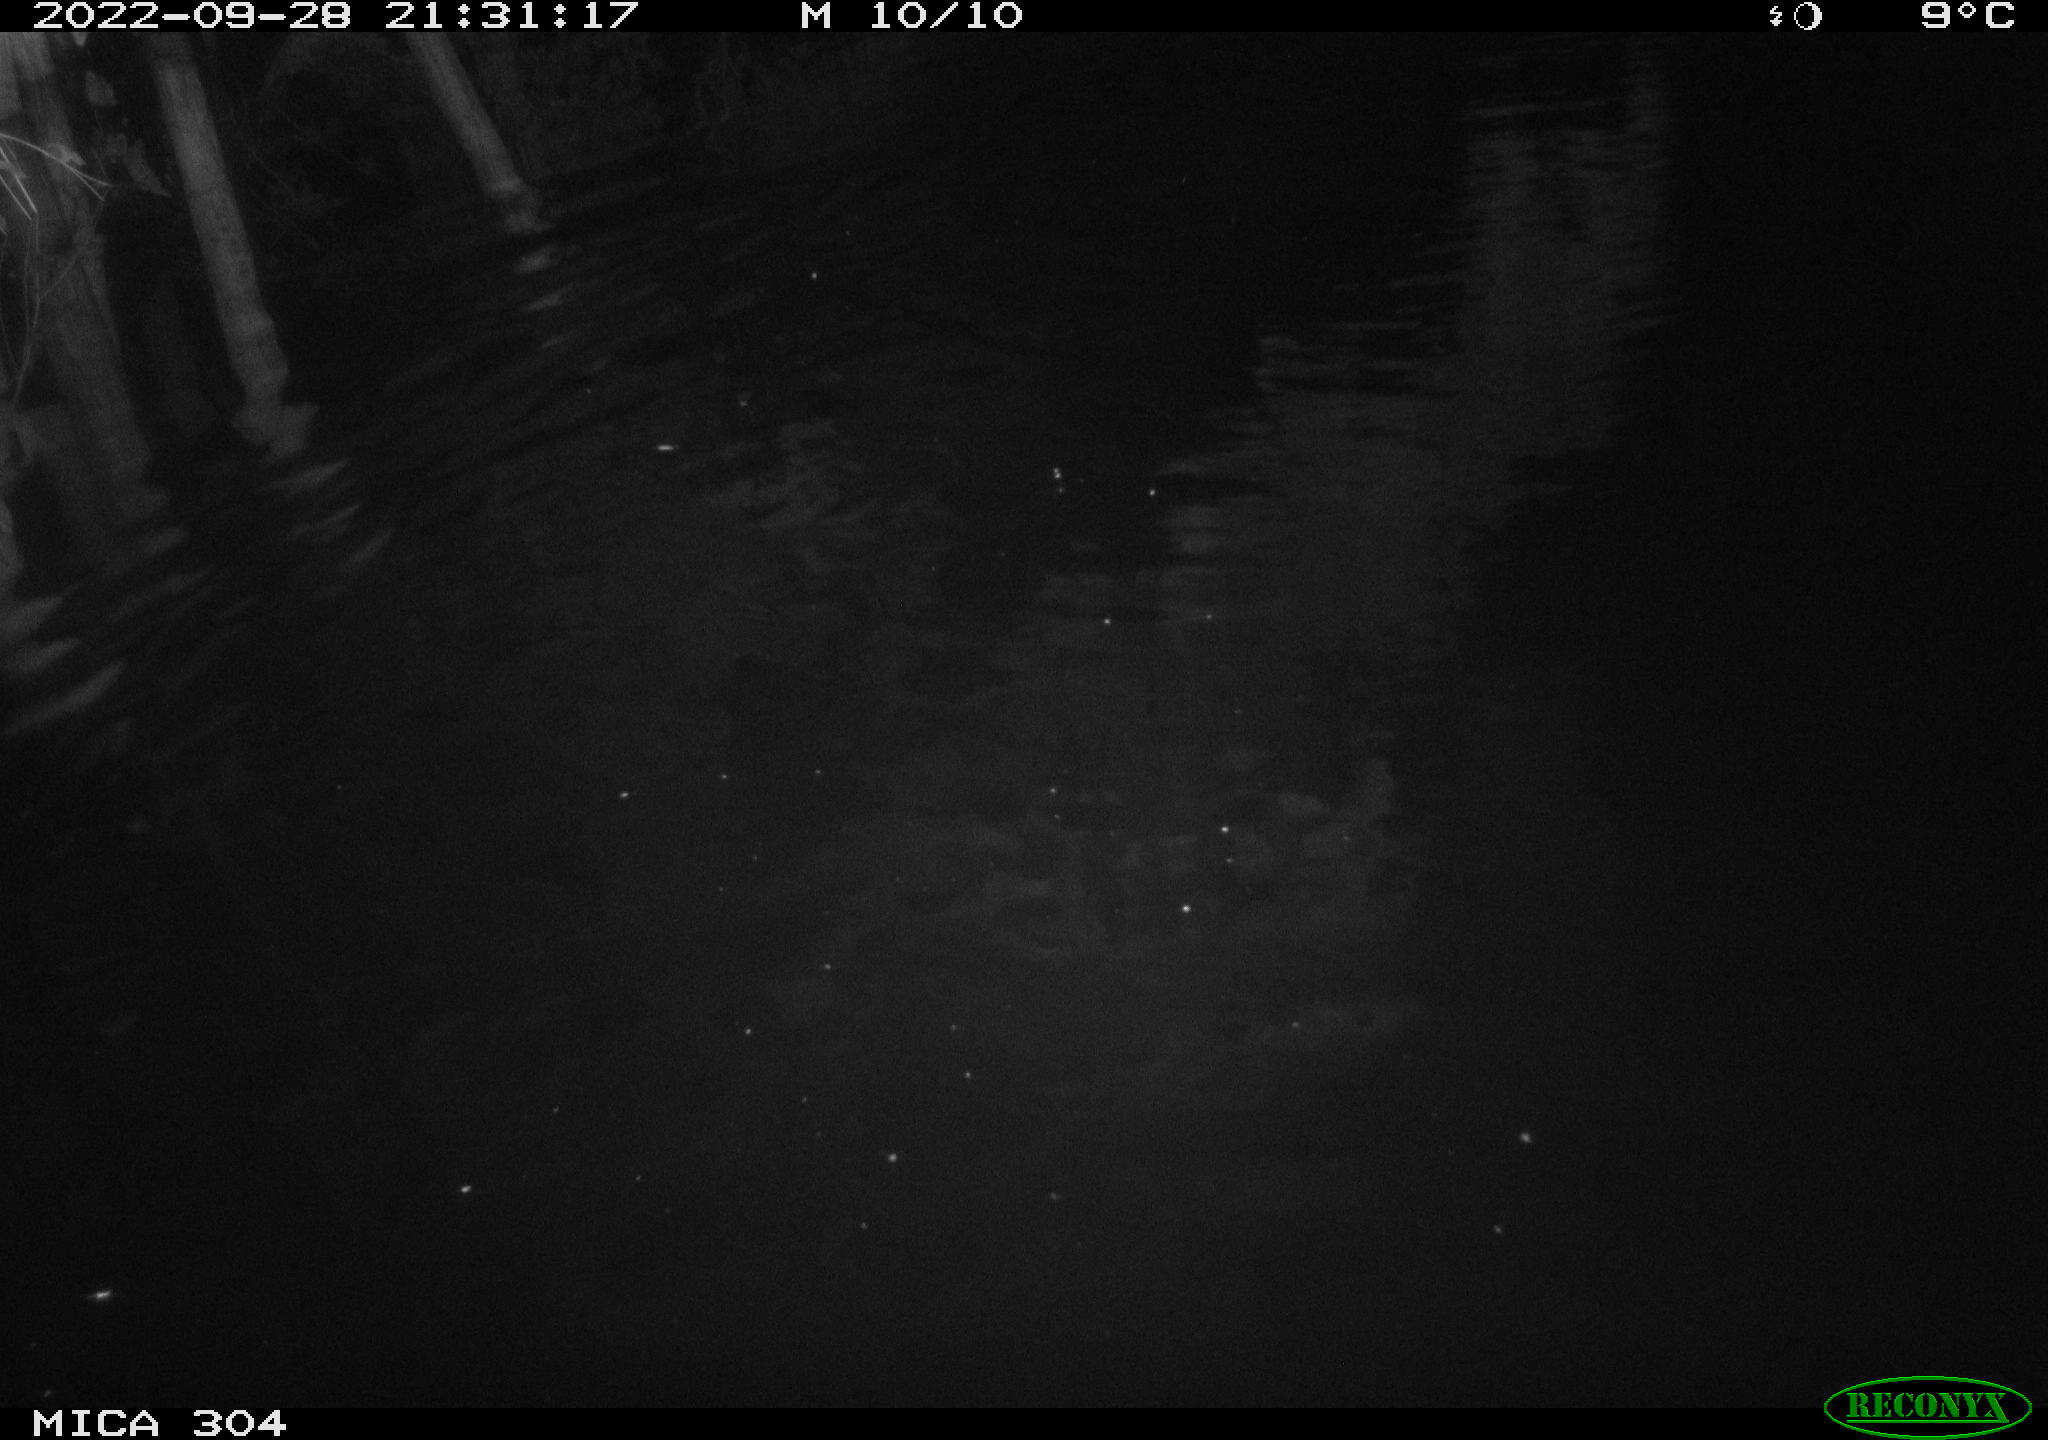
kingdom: Animalia
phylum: Chordata
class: Mammalia
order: Rodentia
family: Cricetidae
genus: Ondatra
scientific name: Ondatra zibethicus
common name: Muskrat
